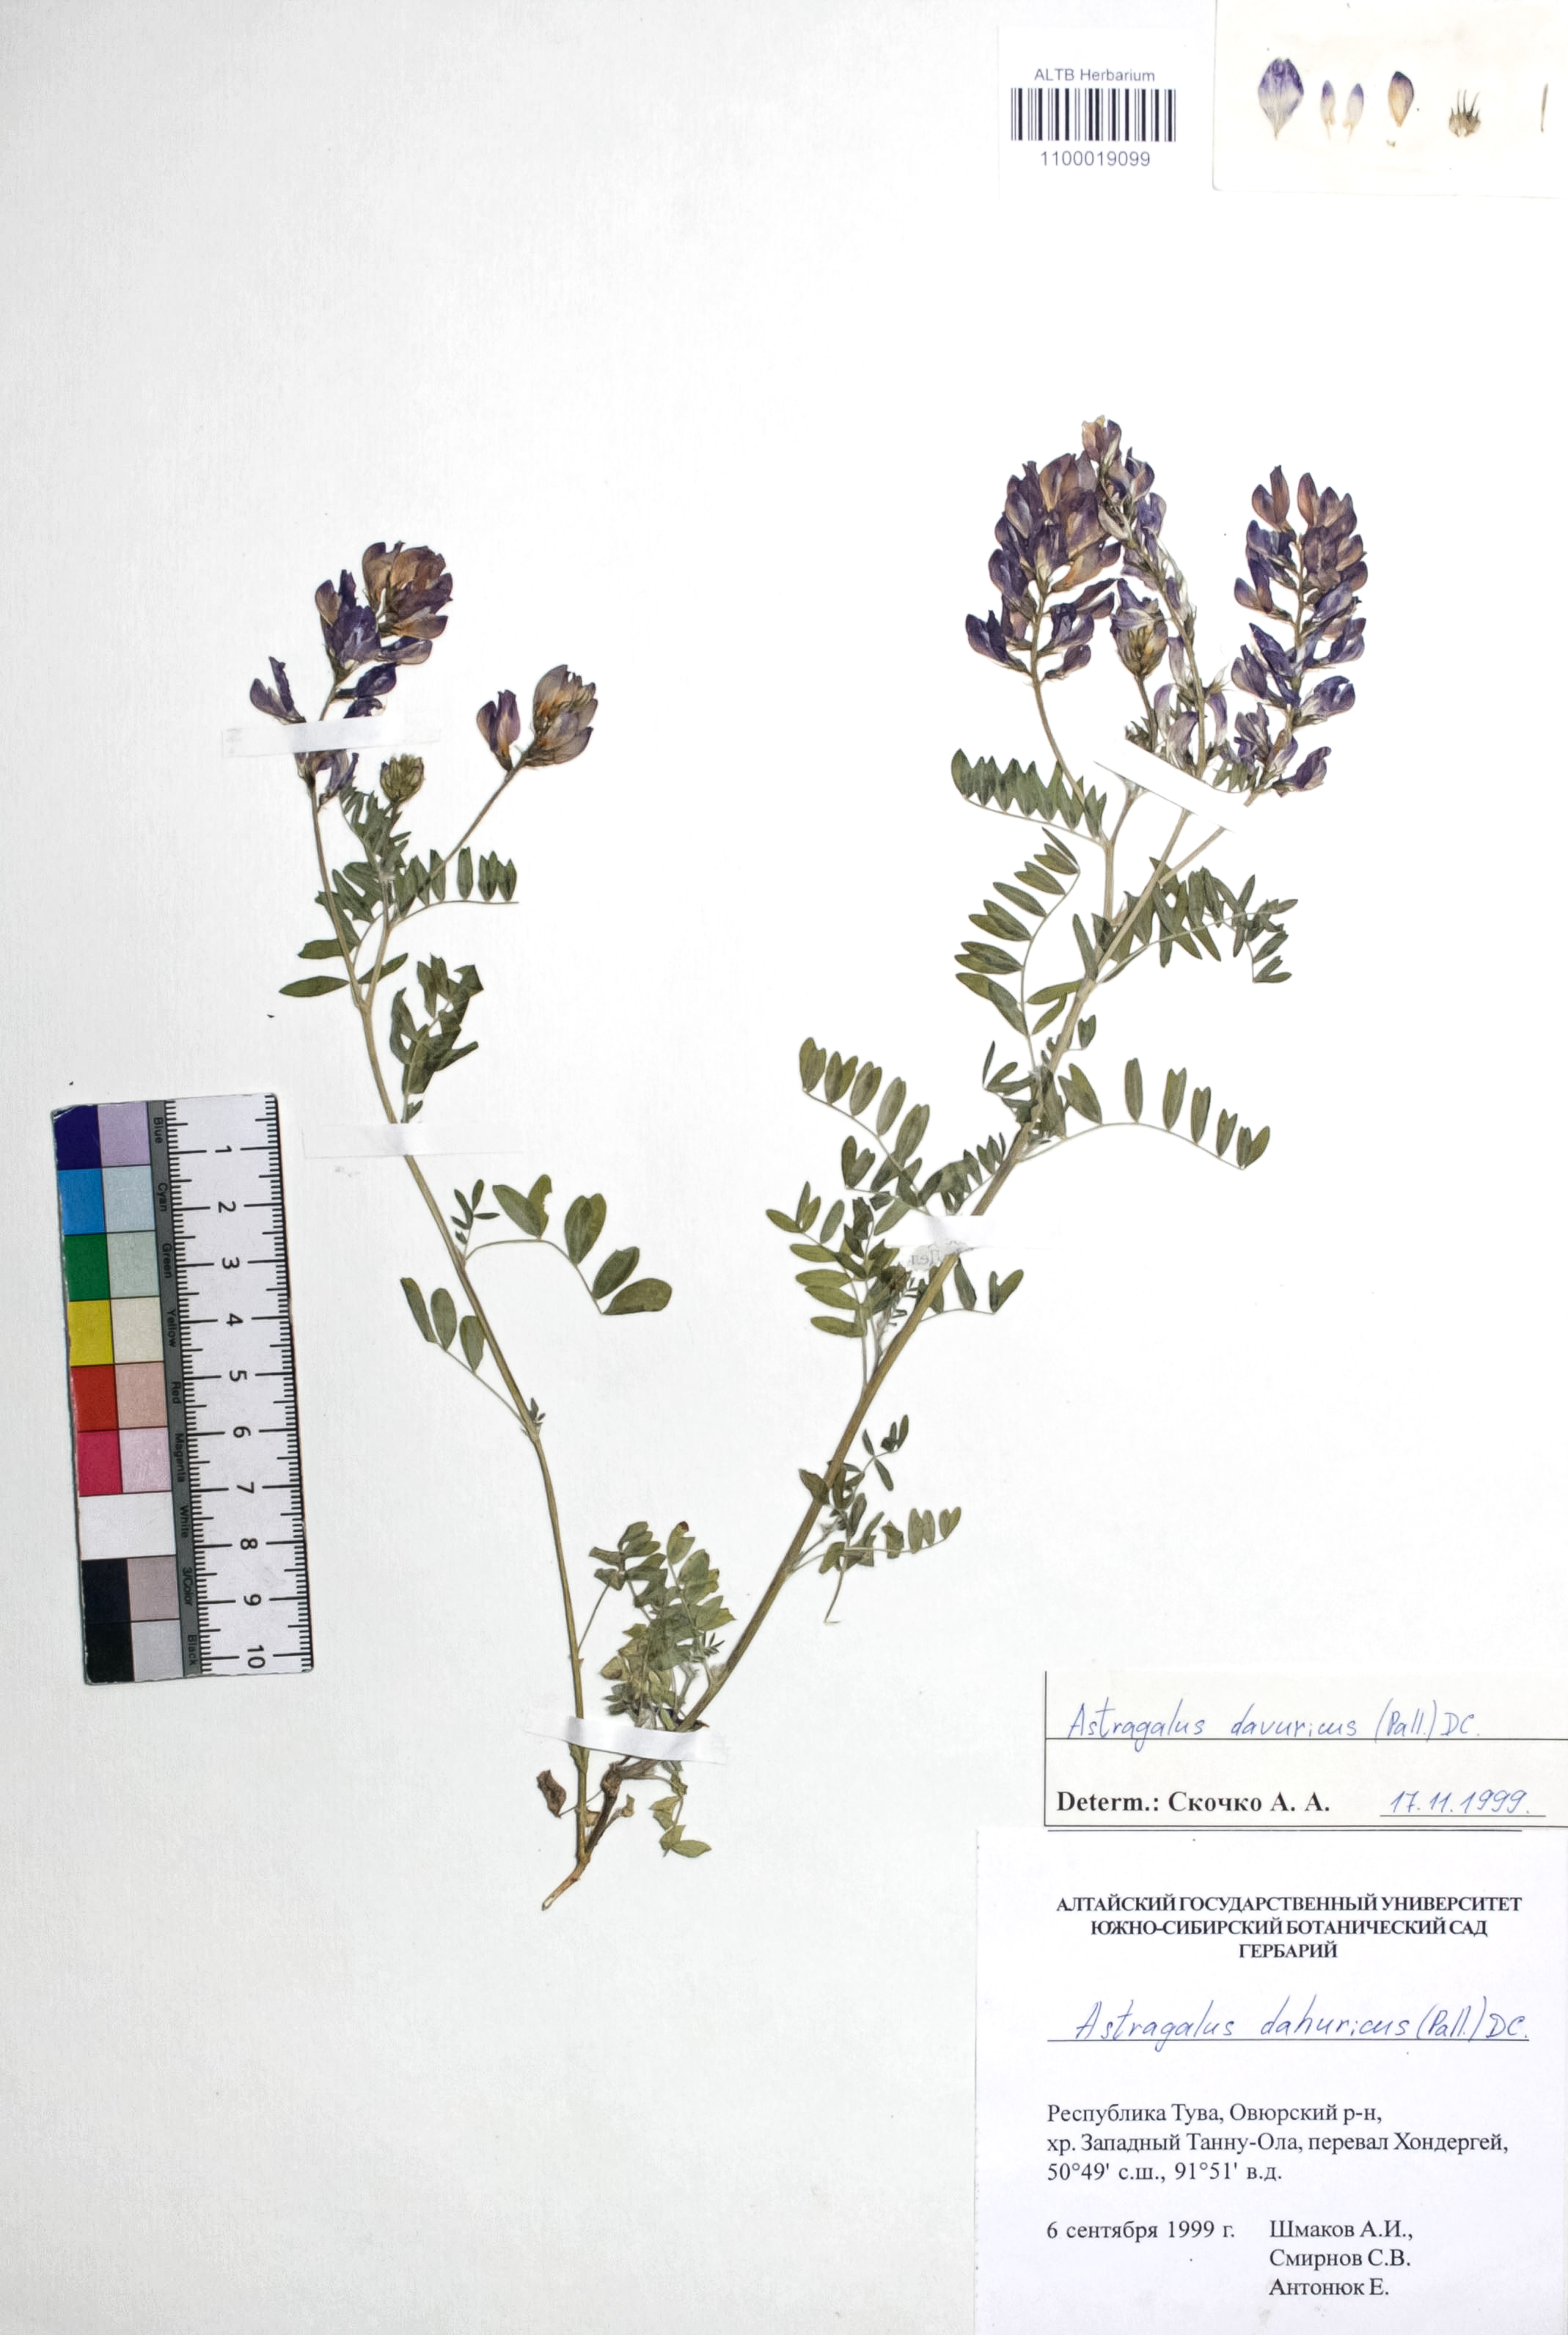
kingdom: Plantae
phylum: Tracheophyta
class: Magnoliopsida
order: Fabales
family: Fabaceae
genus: Astragalus
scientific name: Astragalus davuricus
